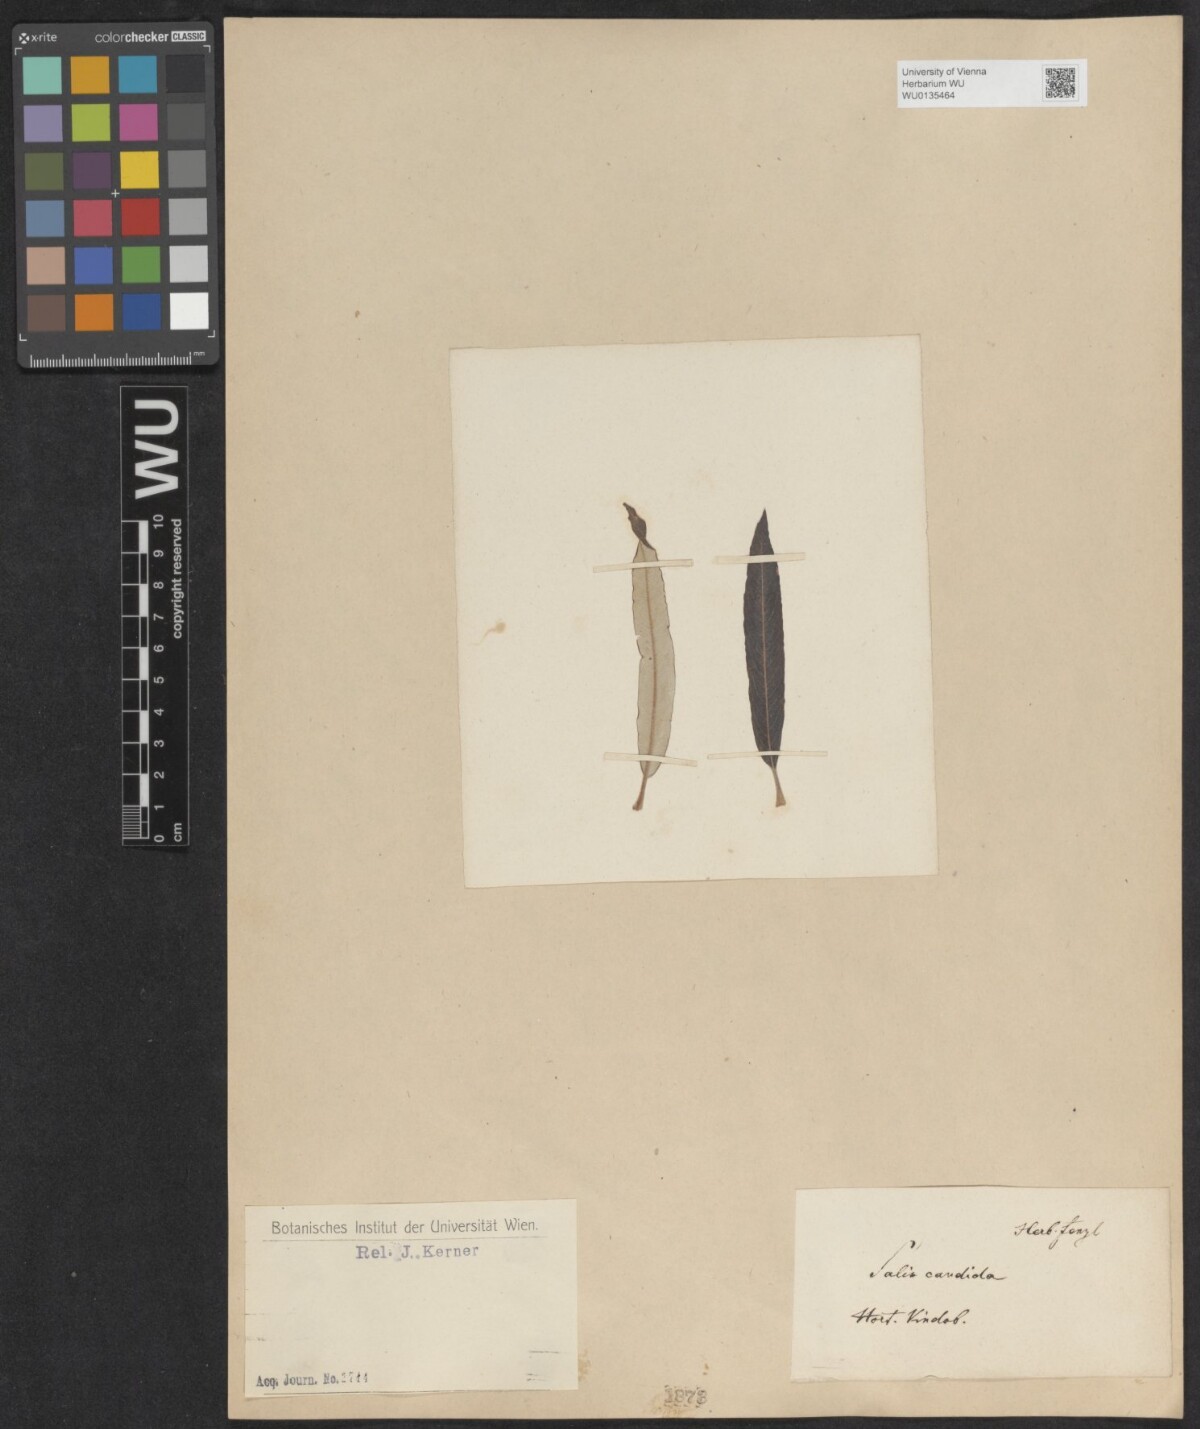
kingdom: Plantae
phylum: Tracheophyta
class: Magnoliopsida
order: Malpighiales
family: Salicaceae
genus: Salix
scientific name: Salix candida
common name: Hoary willow
